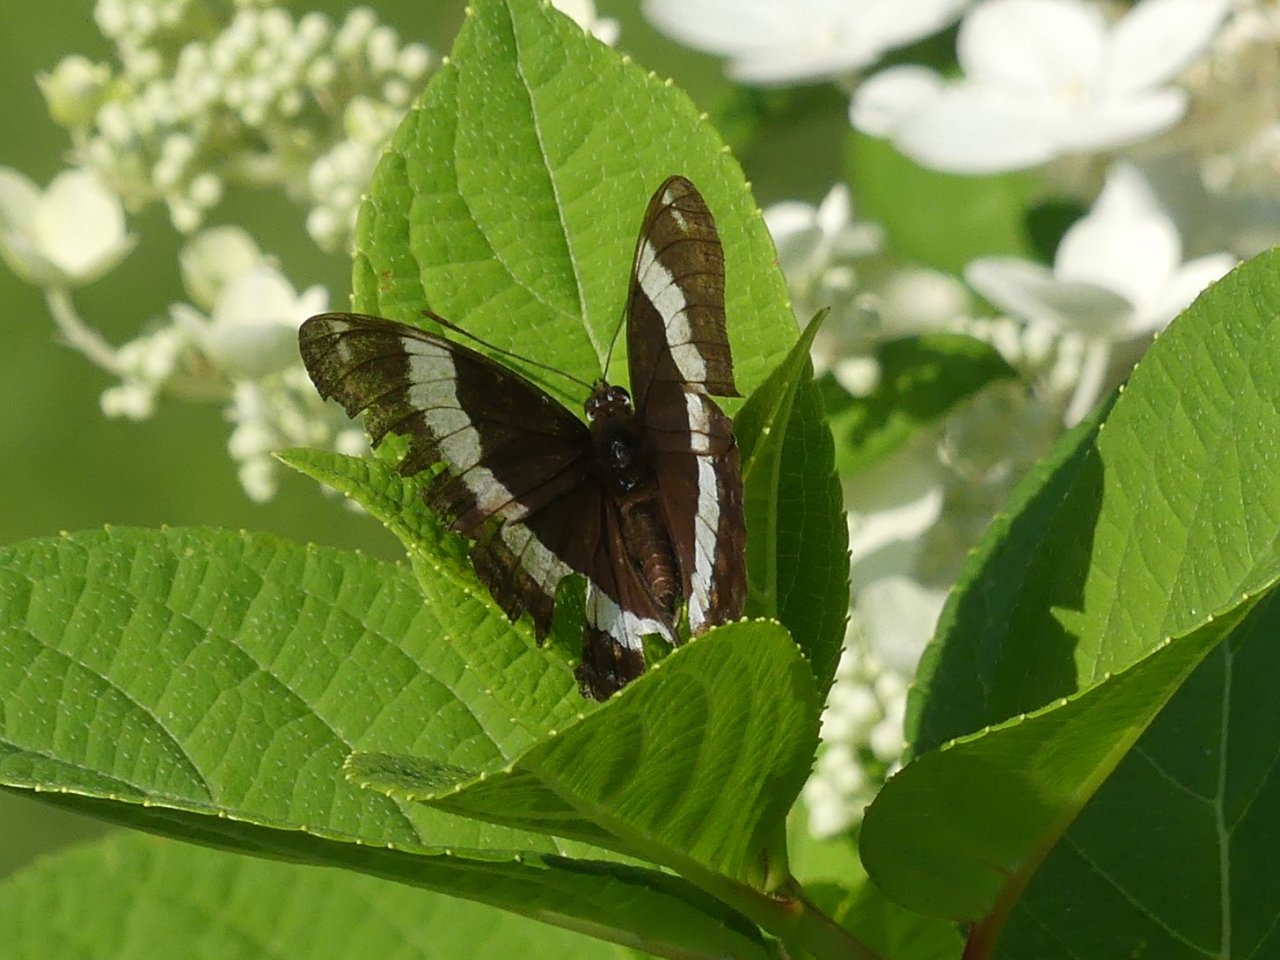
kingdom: Animalia
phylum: Arthropoda
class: Insecta
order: Lepidoptera
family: Nymphalidae
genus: Limenitis
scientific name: Limenitis arthemis
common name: Red-spotted Admiral
